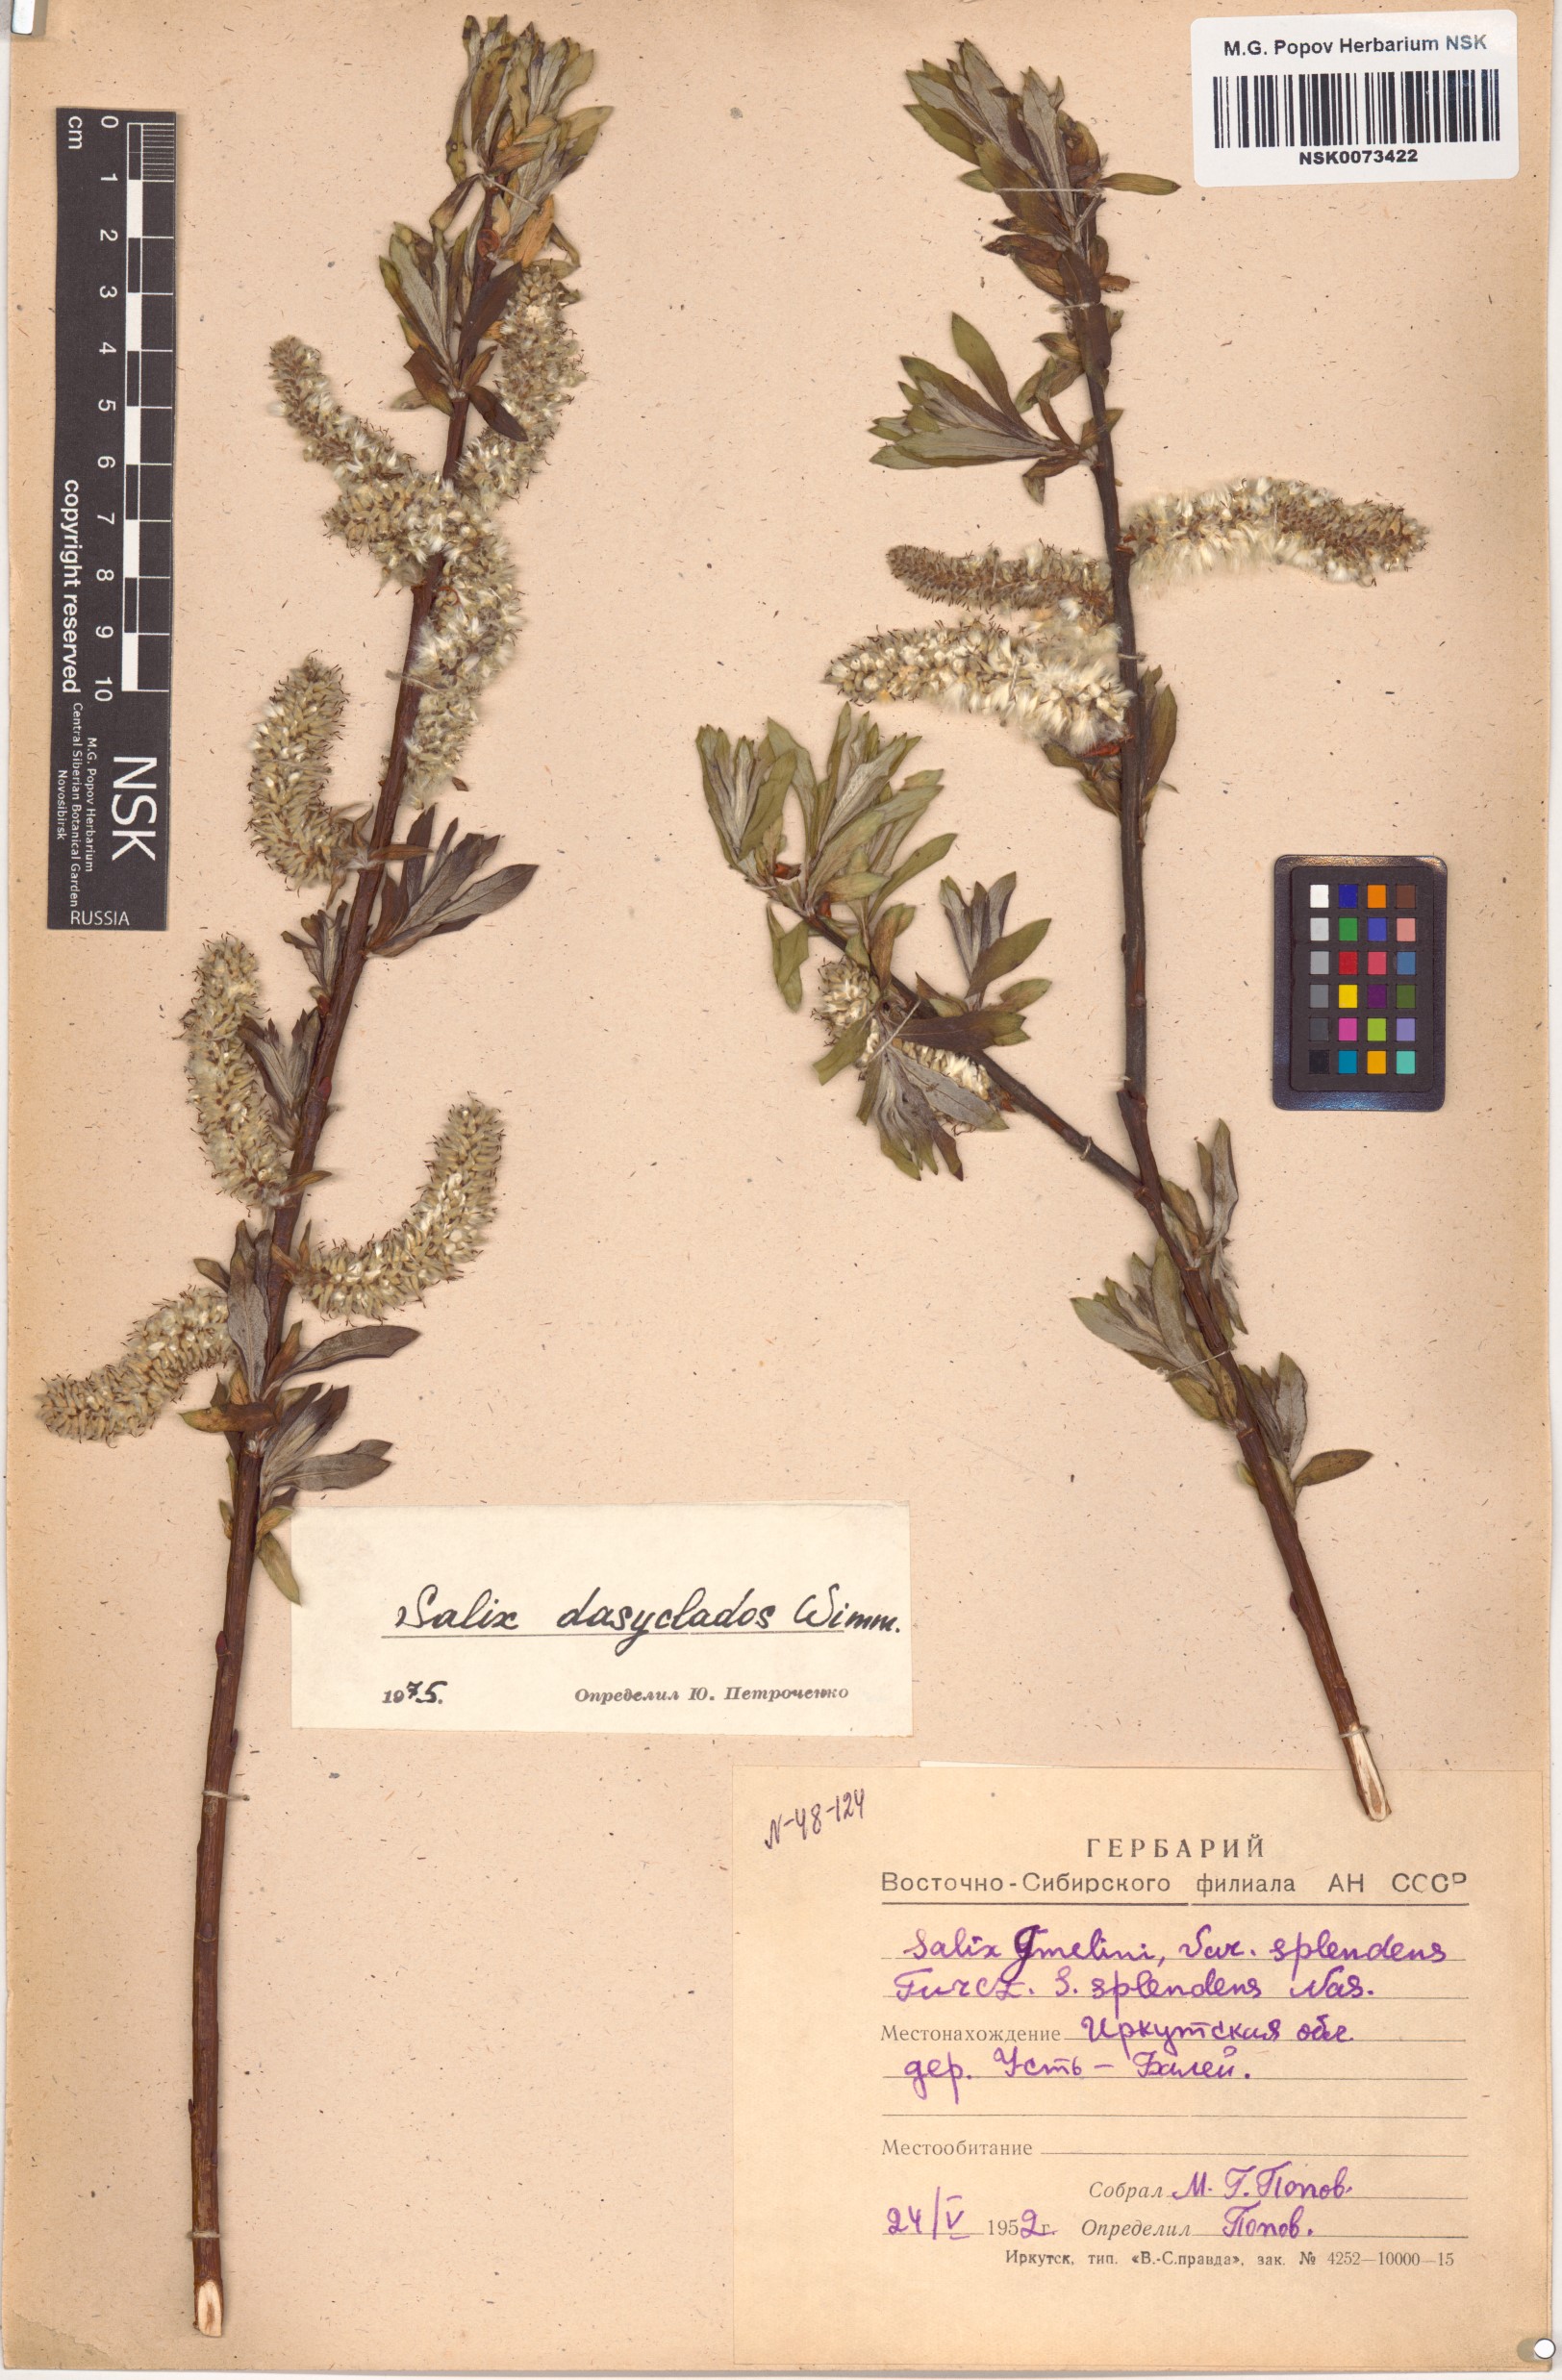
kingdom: Plantae
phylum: Tracheophyta
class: Magnoliopsida
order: Malpighiales
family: Salicaceae
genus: Salix
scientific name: Salix gmelinii
